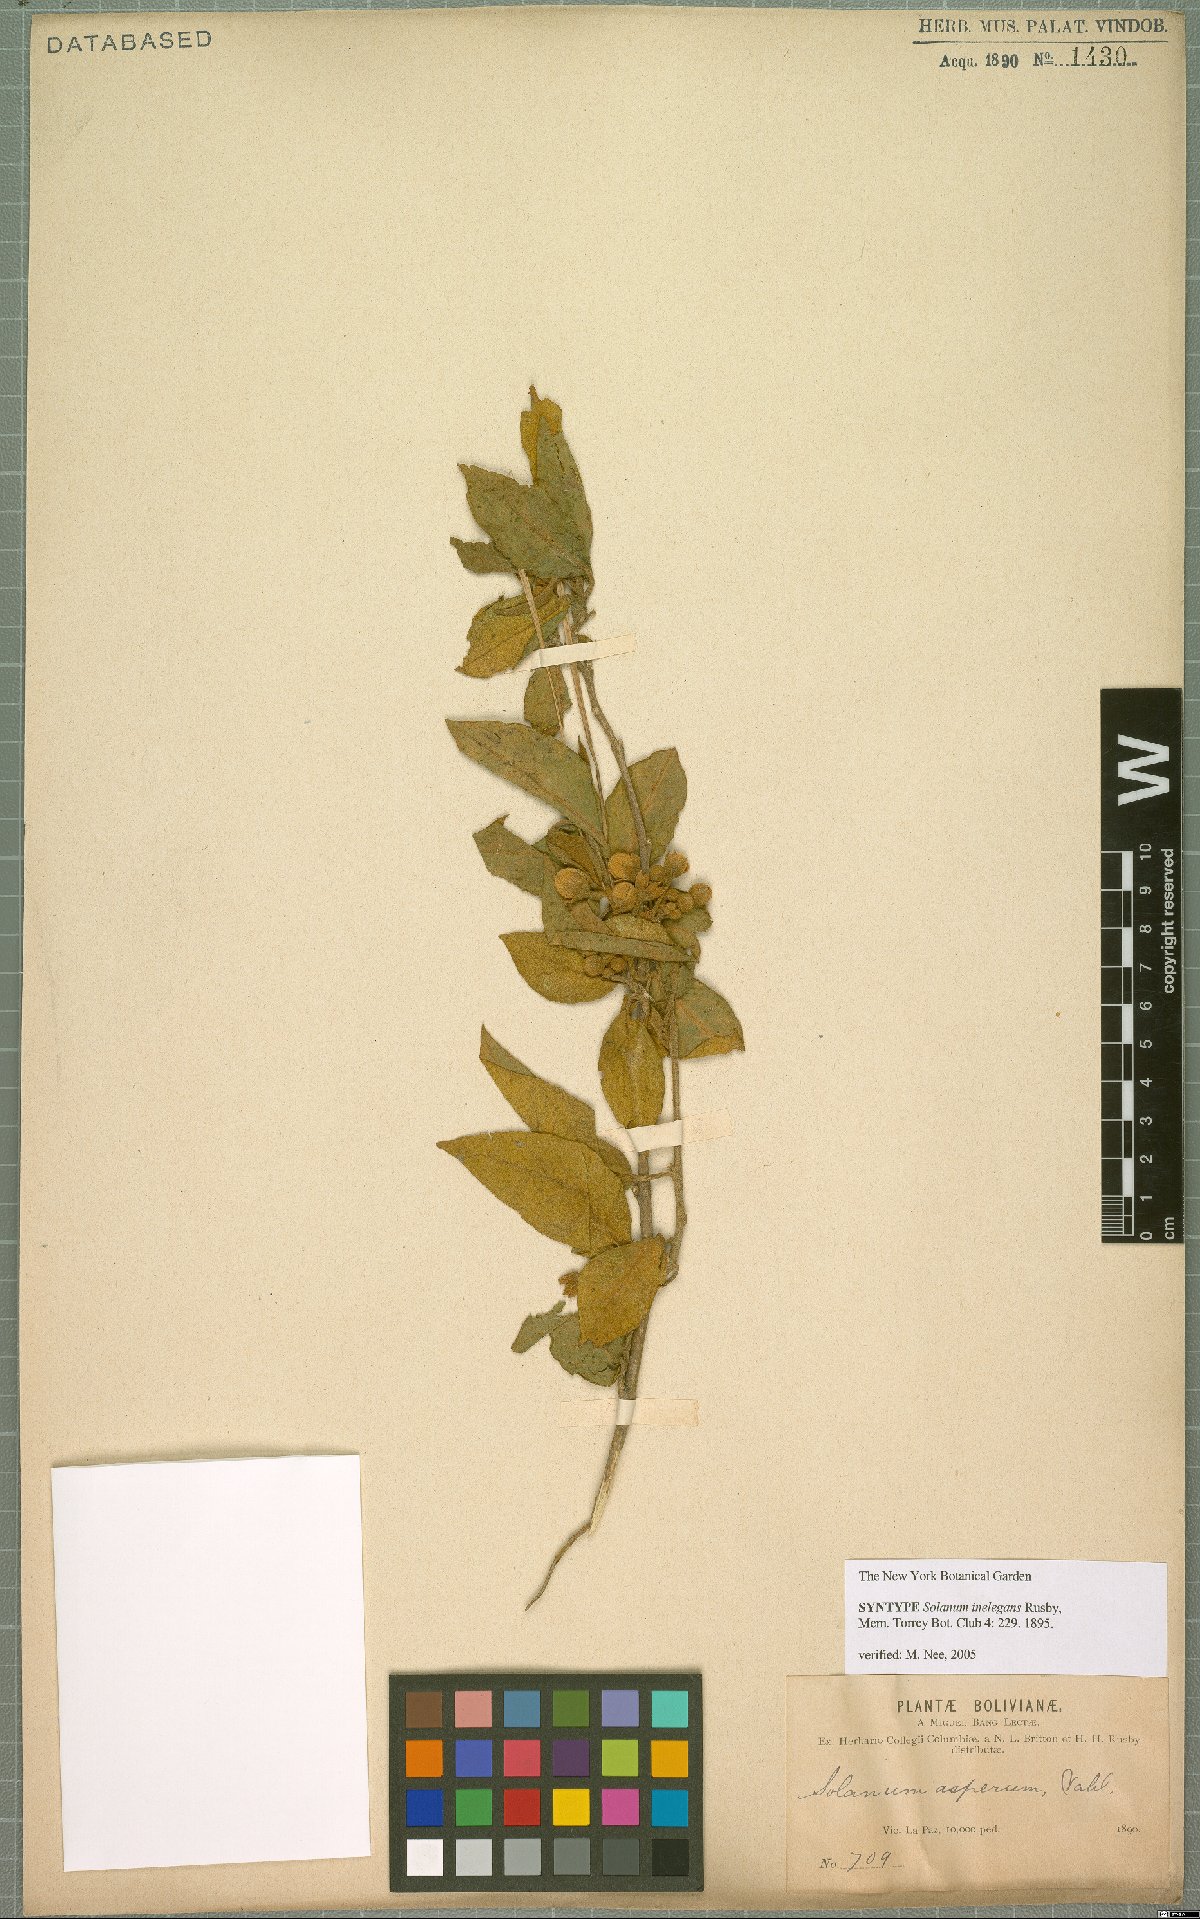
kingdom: Plantae
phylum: Tracheophyta
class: Magnoliopsida
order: Solanales
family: Solanaceae
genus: Solanum
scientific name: Solanum inelegans
